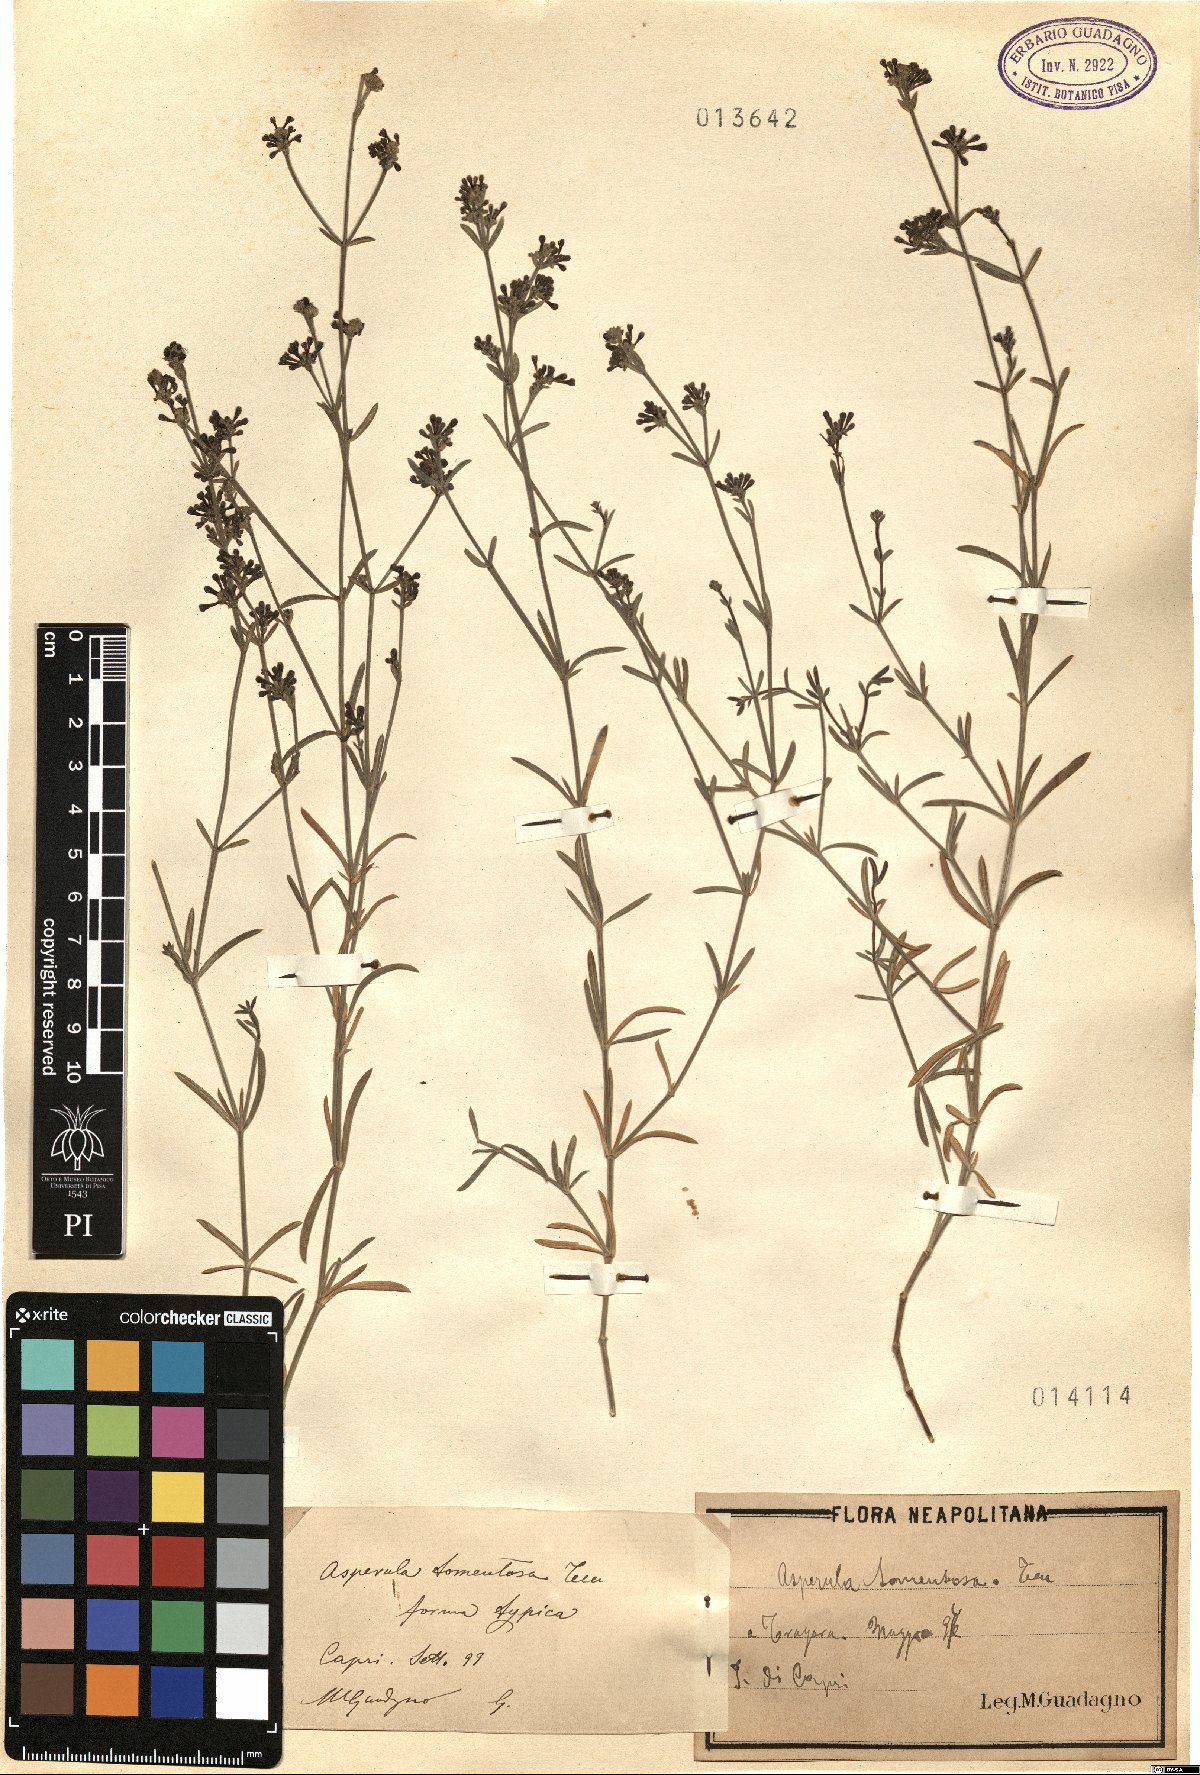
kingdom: Plantae
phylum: Tracheophyta
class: Magnoliopsida
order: Gentianales
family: Rubiaceae
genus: Cynanchica
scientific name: Cynanchica crassifolia
